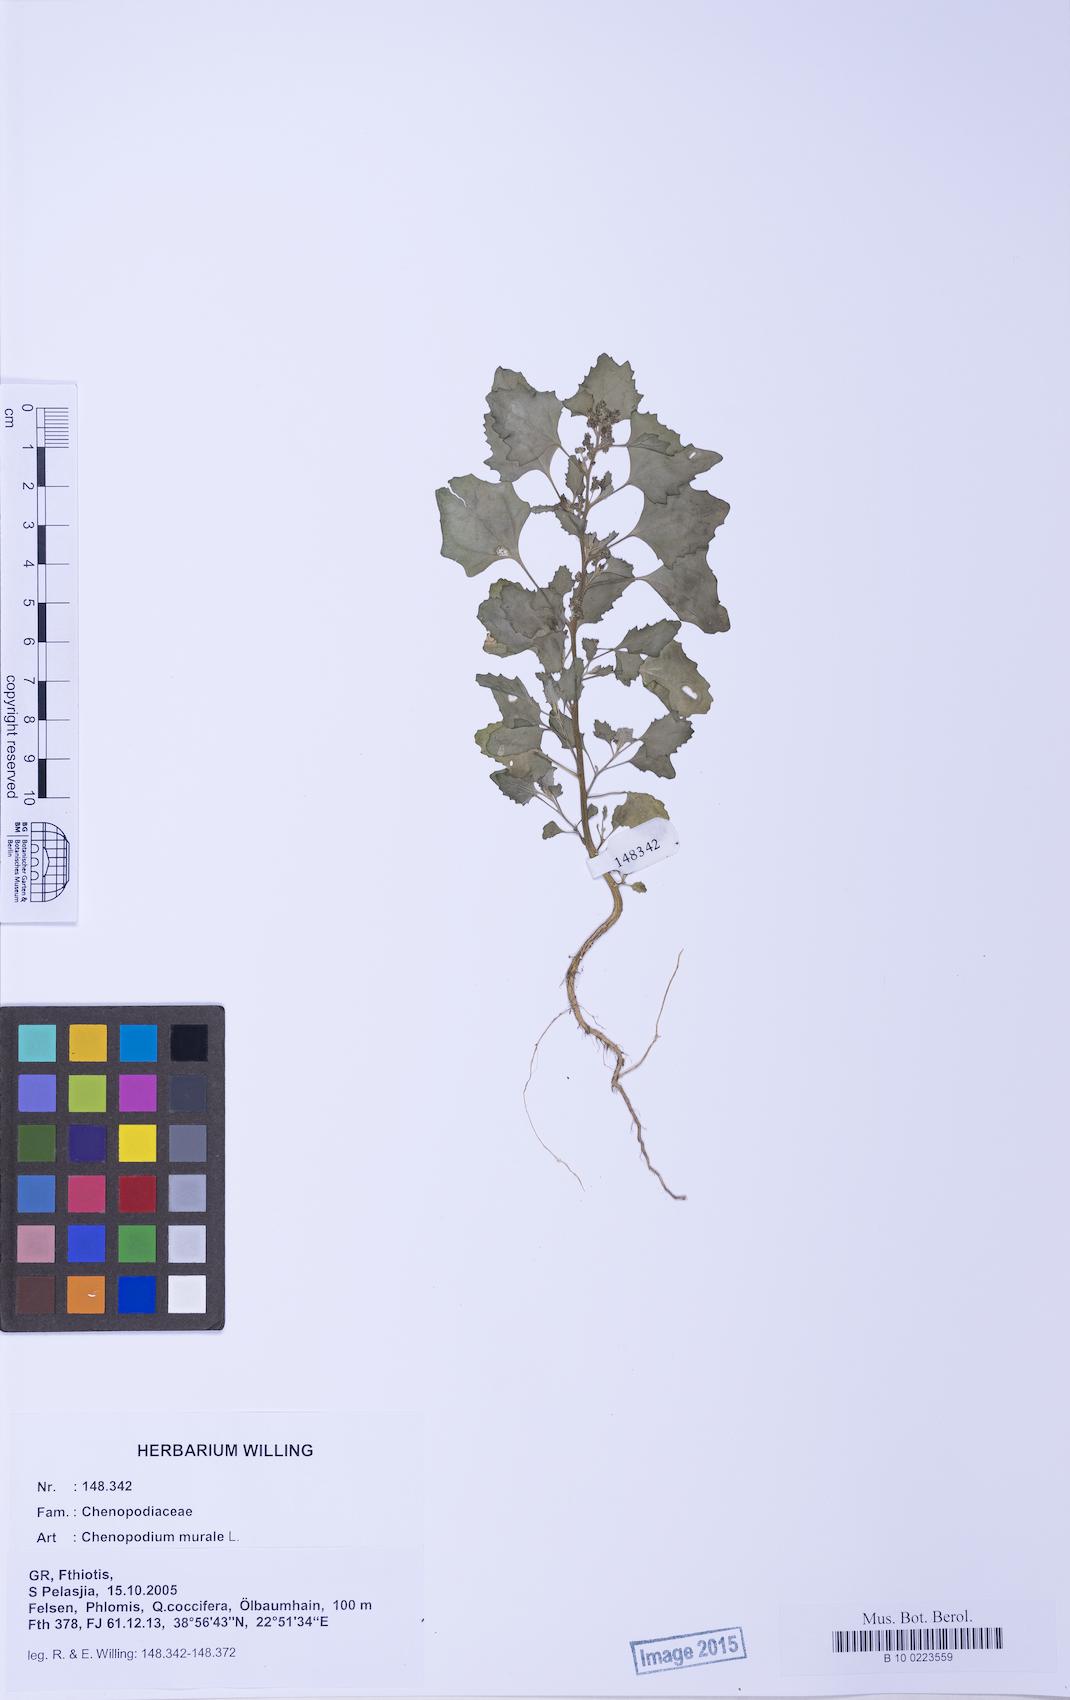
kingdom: Plantae
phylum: Tracheophyta
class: Magnoliopsida
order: Caryophyllales
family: Amaranthaceae
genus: Chenopodiastrum
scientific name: Chenopodiastrum murale
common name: Sowbane
